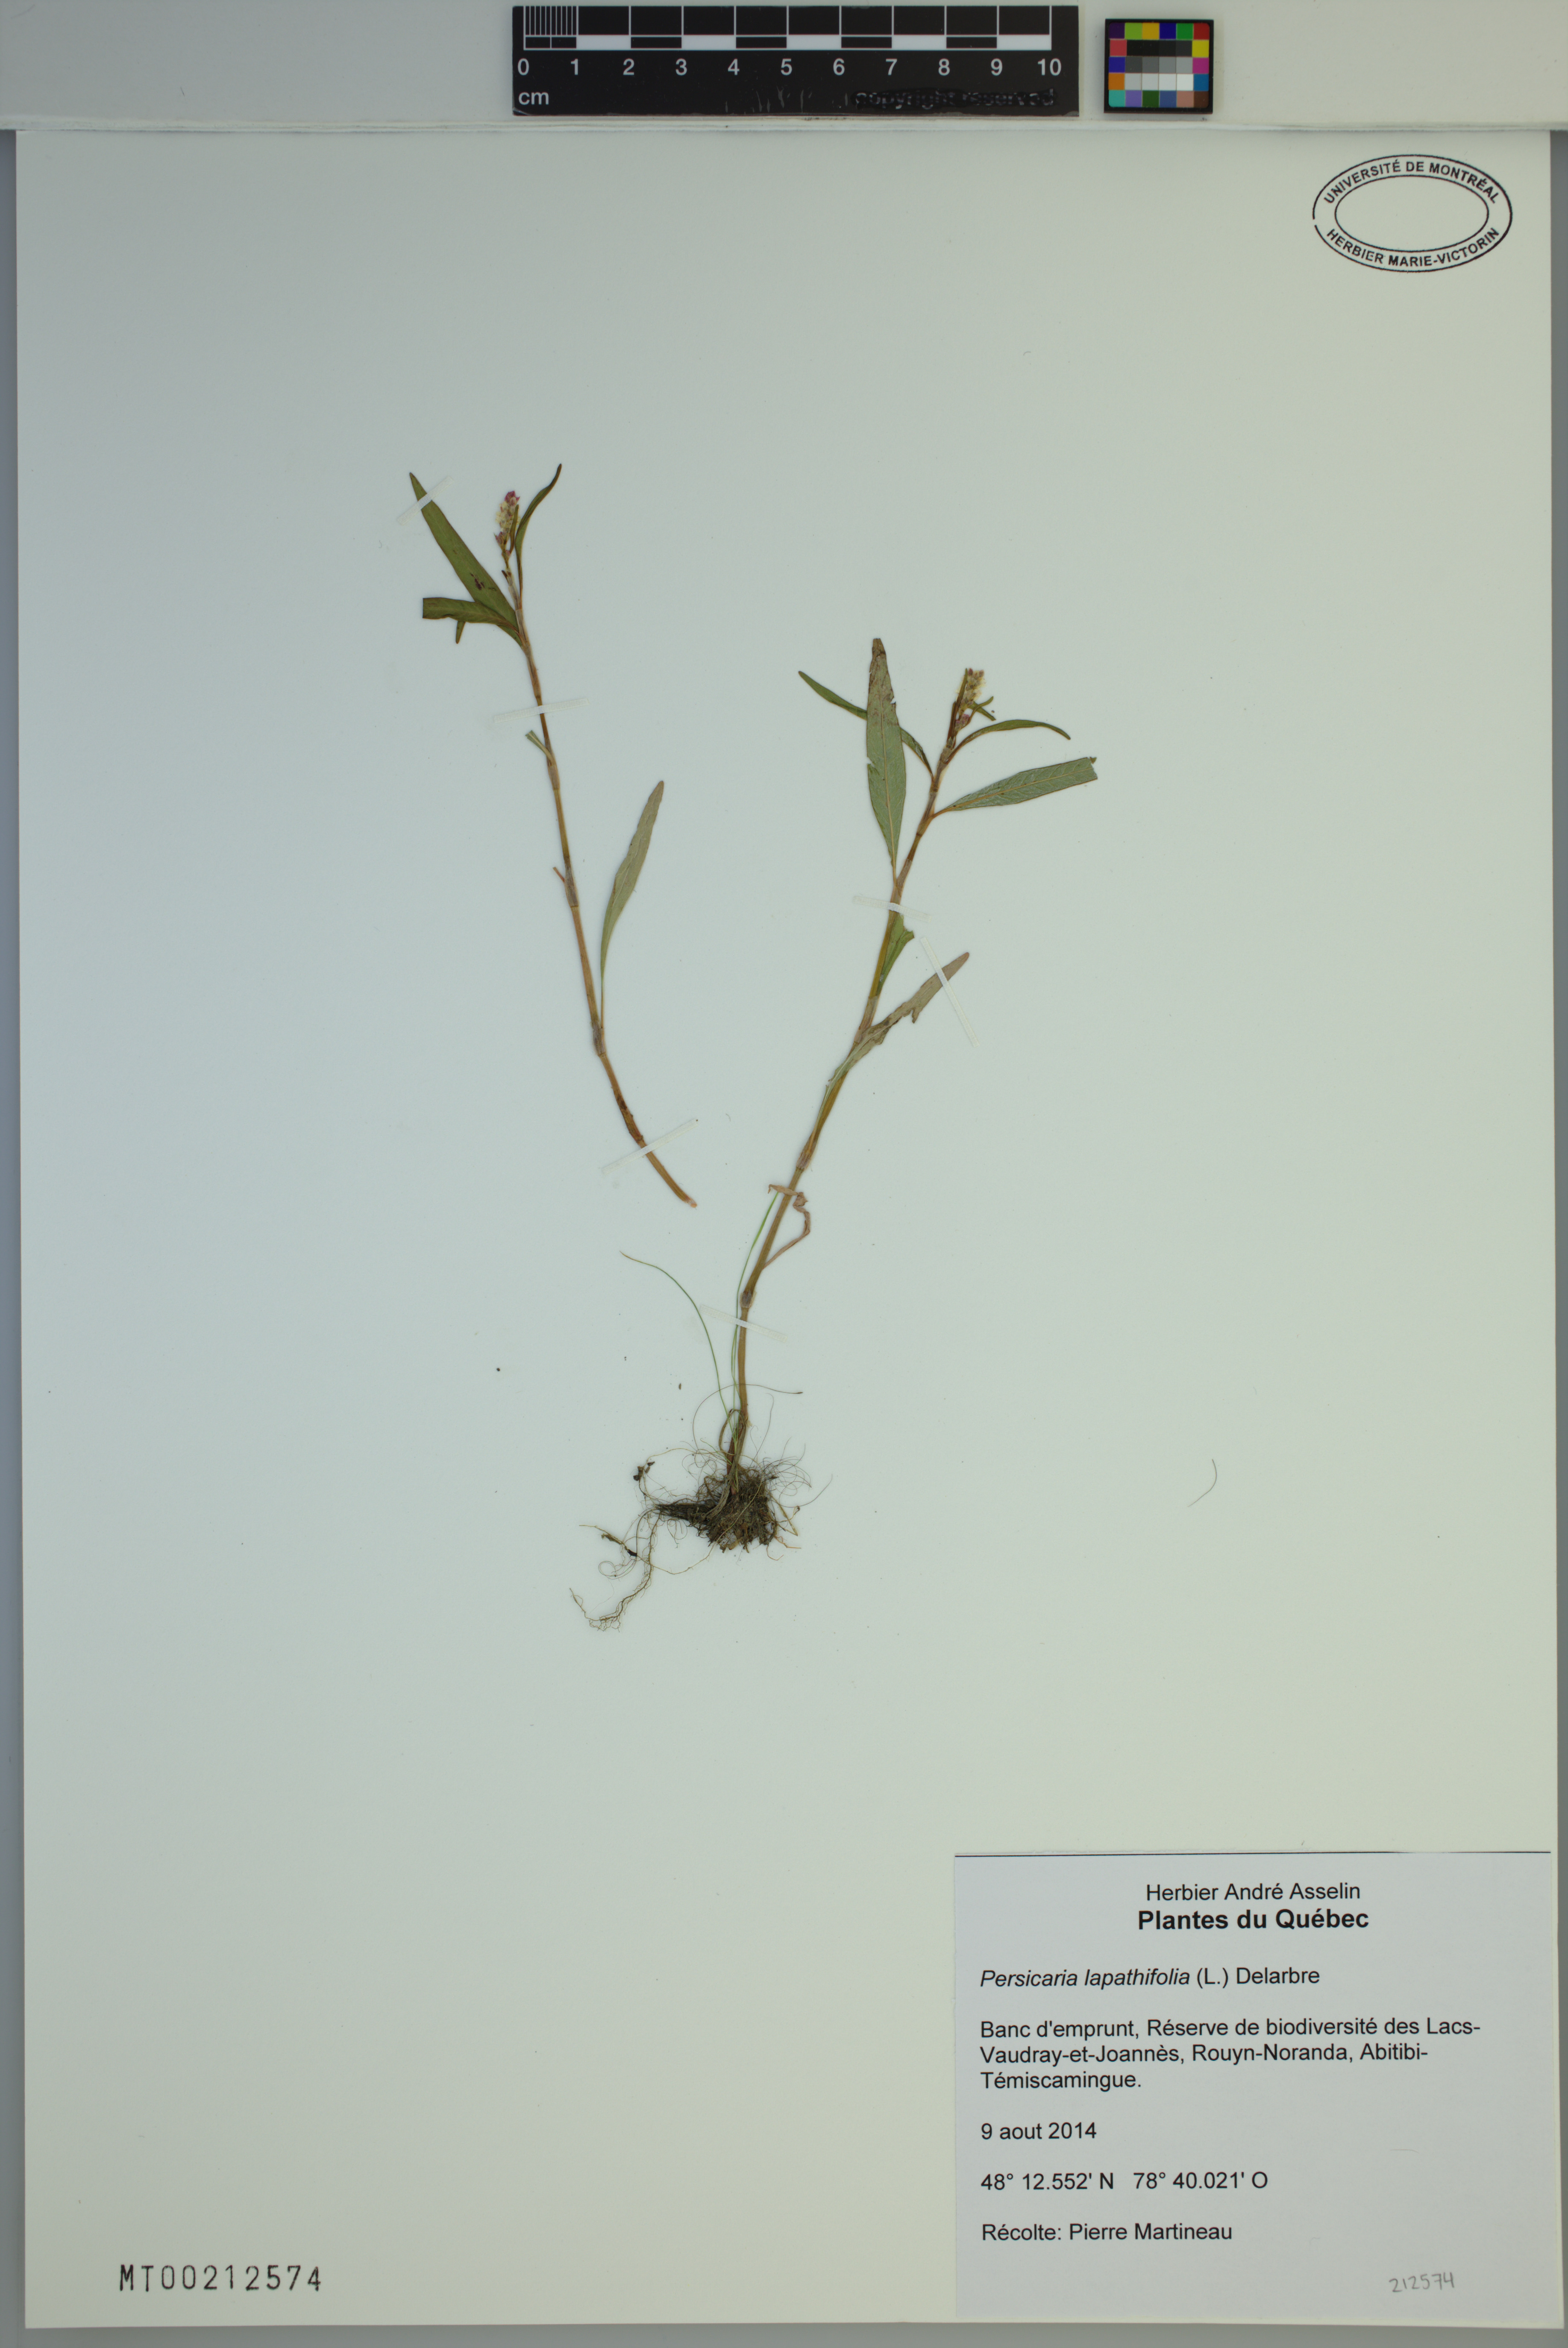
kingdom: Plantae
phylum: Tracheophyta
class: Magnoliopsida
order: Caryophyllales
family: Polygonaceae
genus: Persicaria
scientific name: Persicaria lapathifolia
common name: Curlytop knotweed
